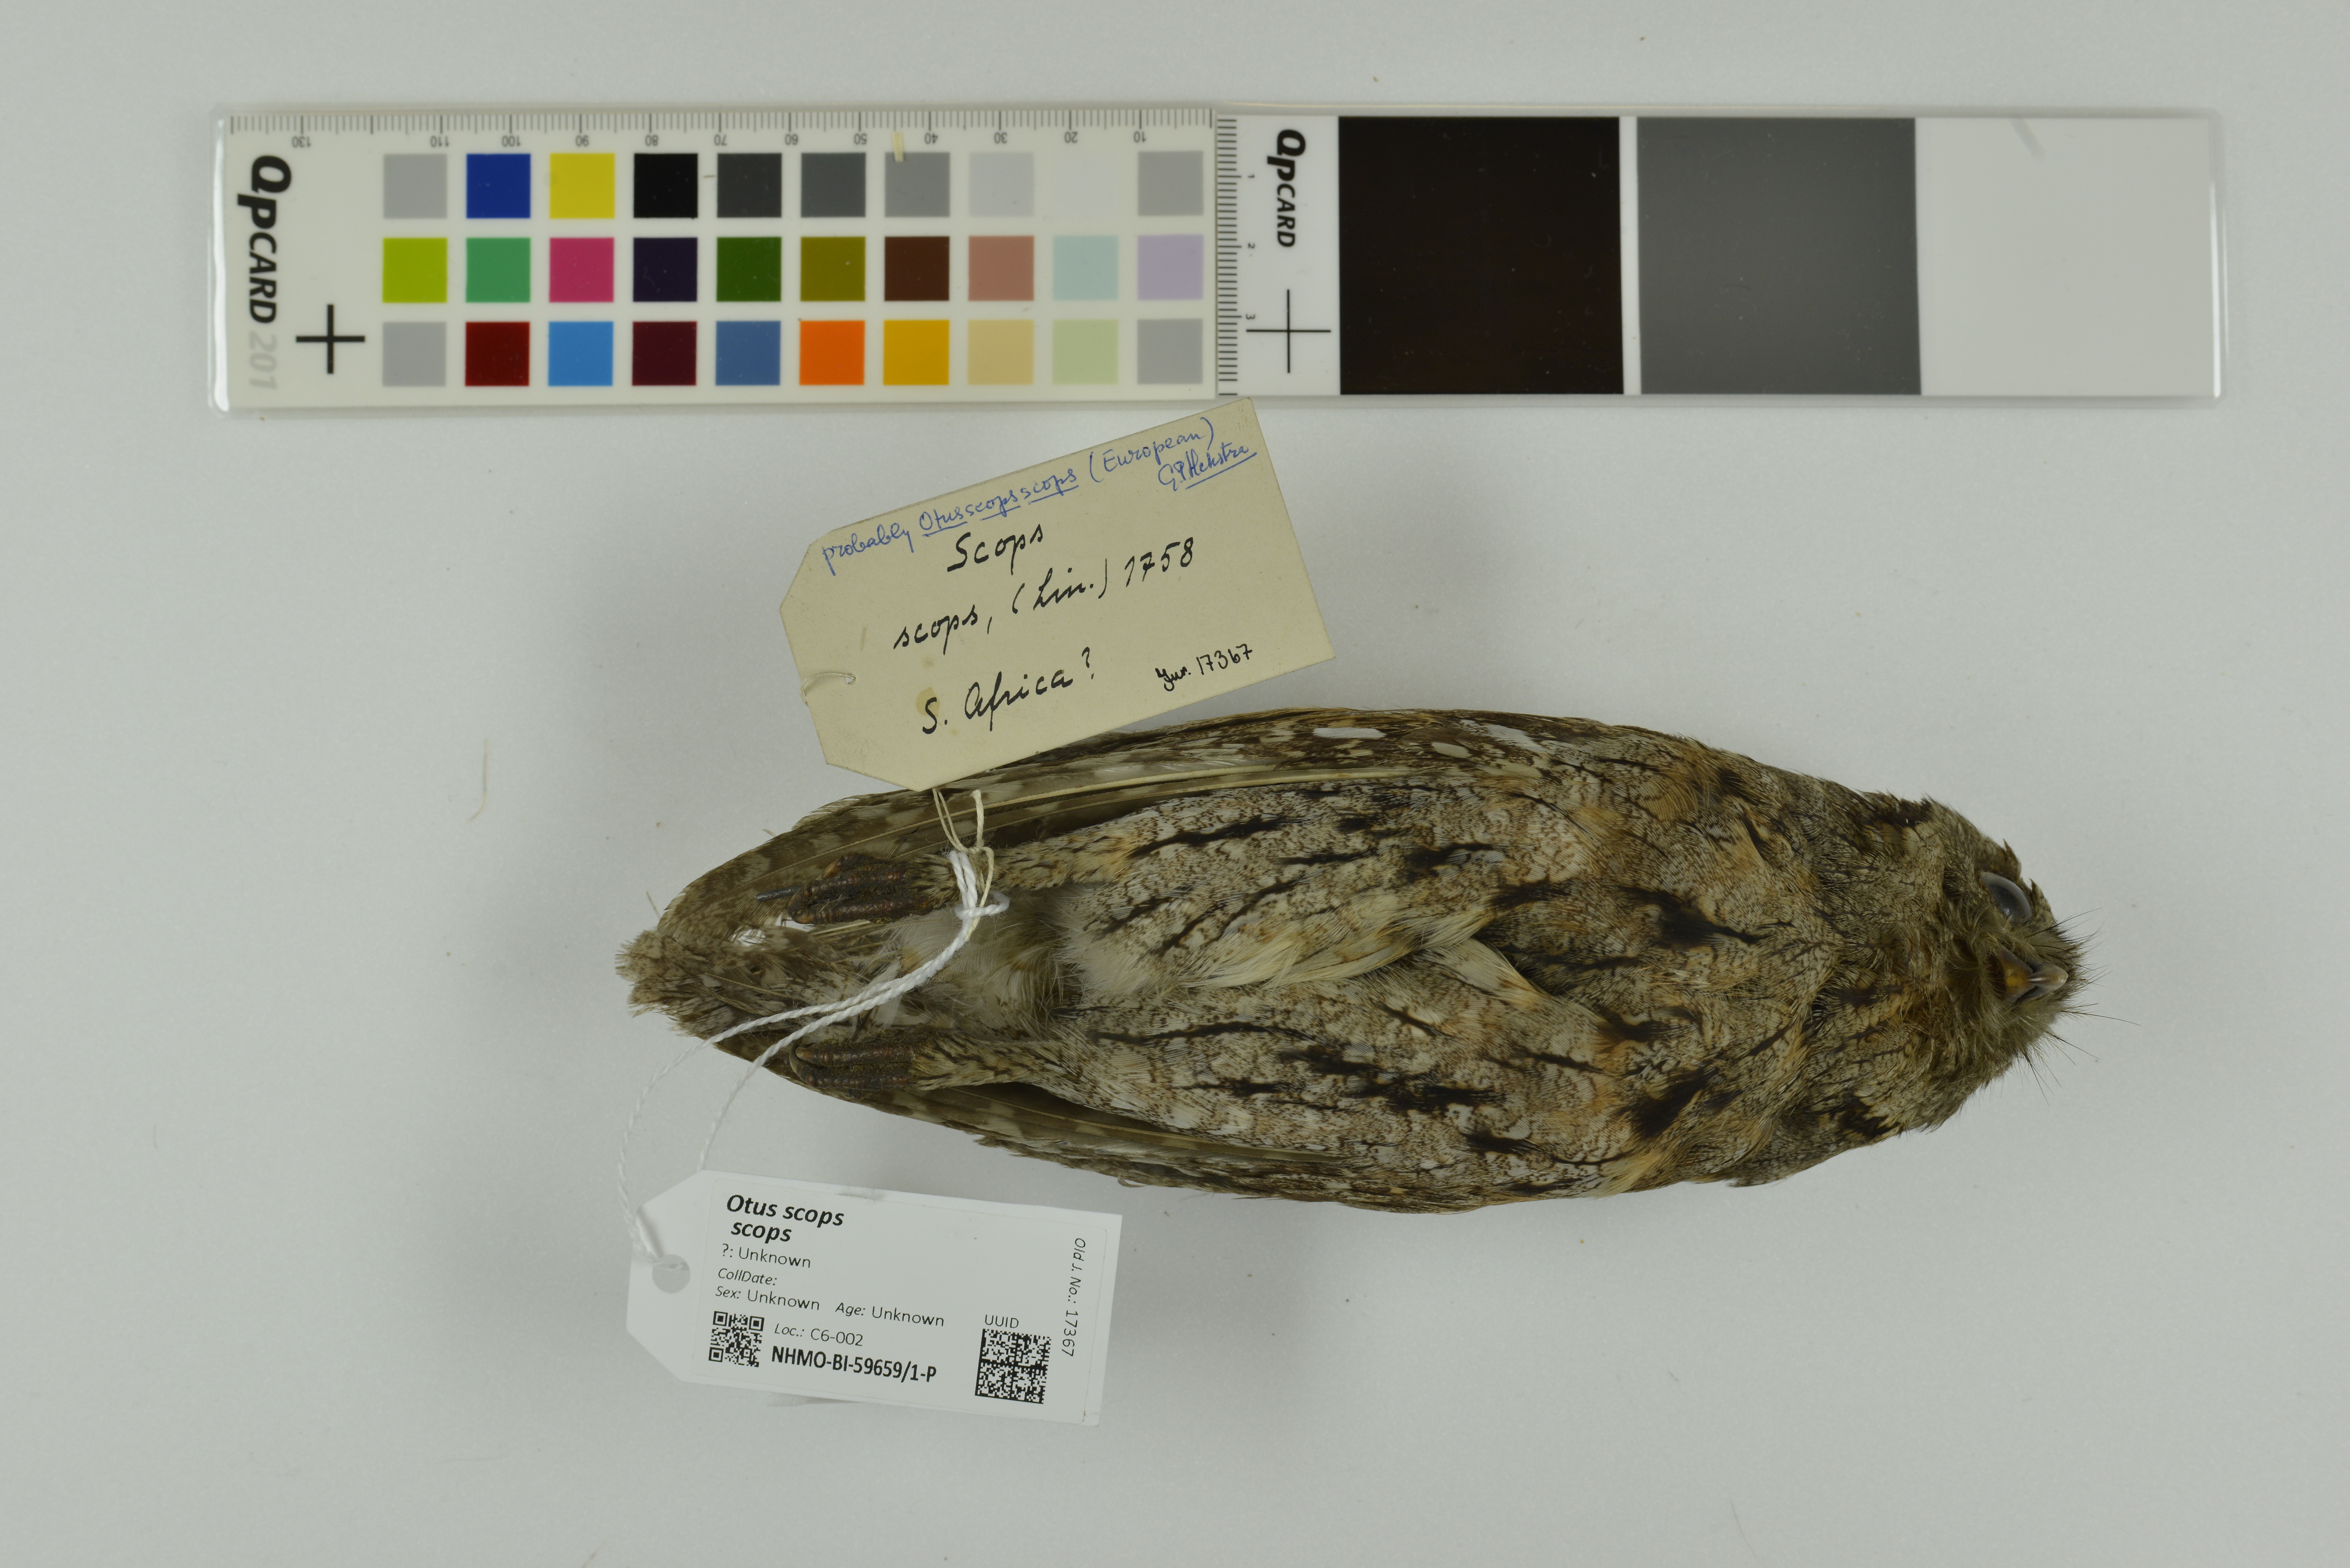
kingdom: Animalia
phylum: Chordata
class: Aves
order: Strigiformes
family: Strigidae
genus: Otus
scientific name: Otus scops
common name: Eurasian scops owl
